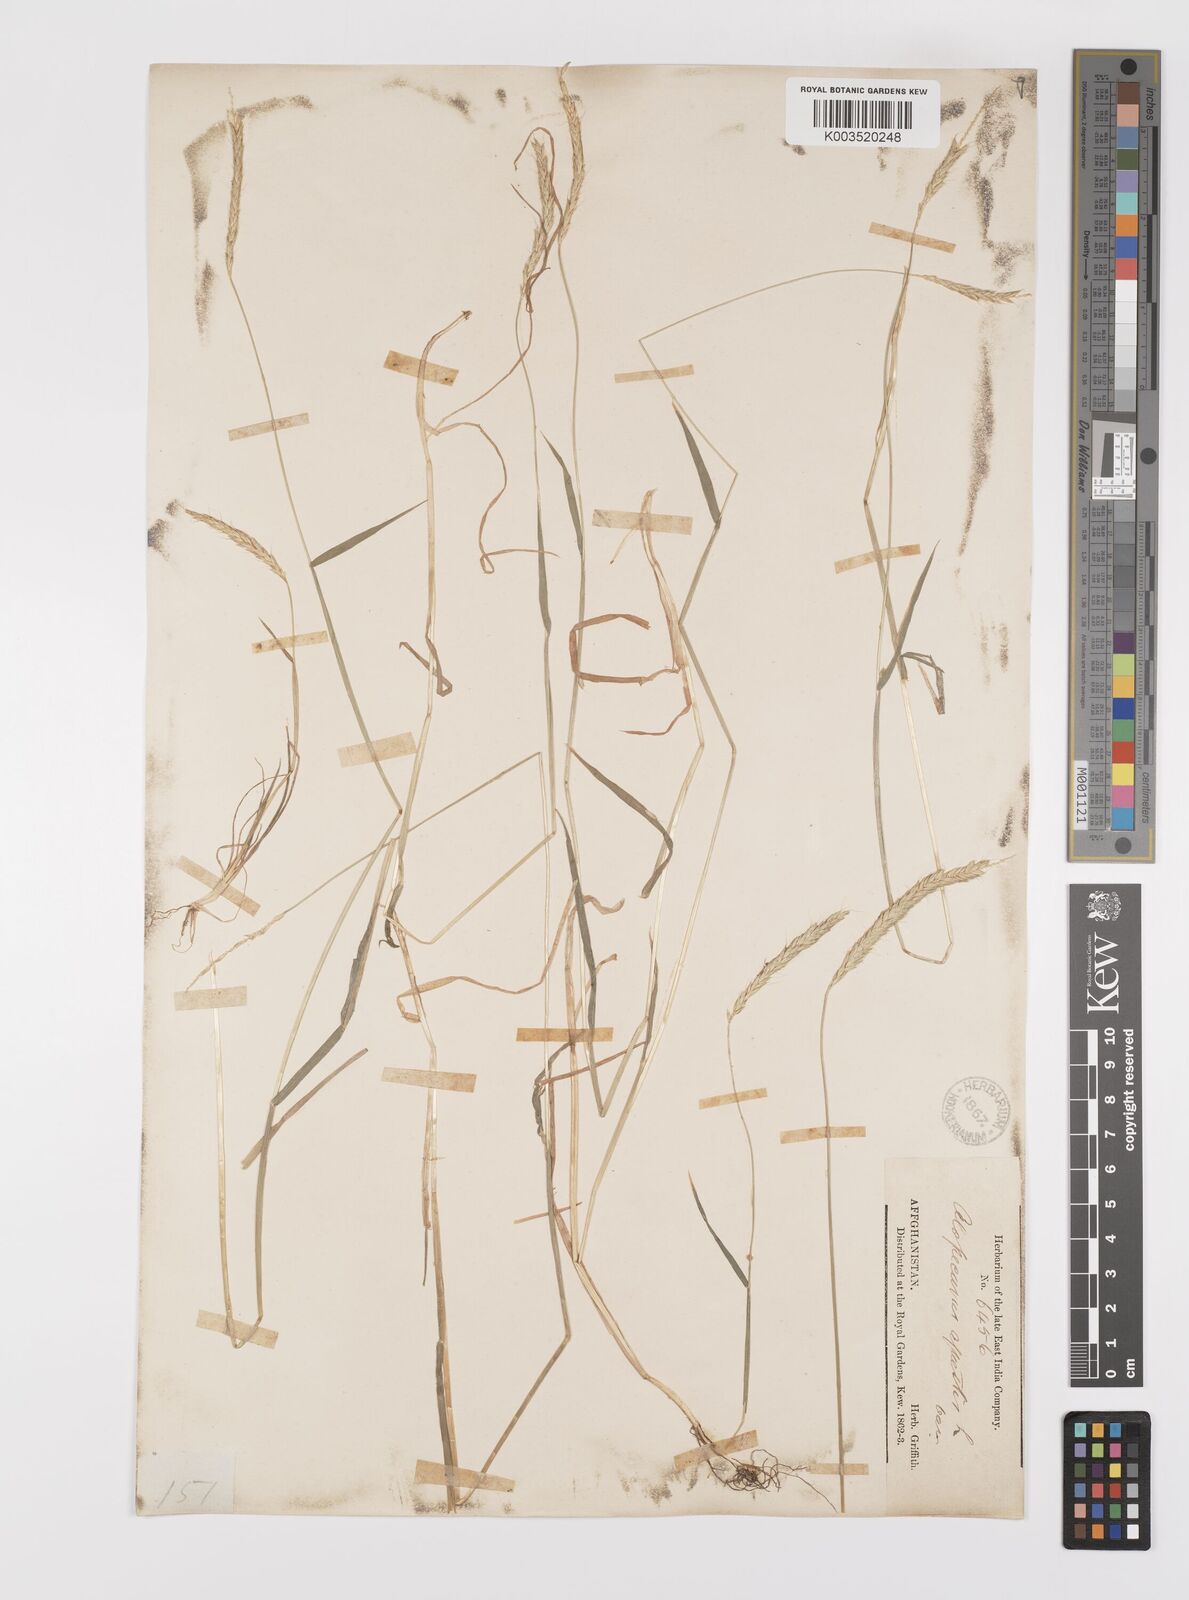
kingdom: Plantae
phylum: Tracheophyta
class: Liliopsida
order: Poales
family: Poaceae
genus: Alopecurus
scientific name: Alopecurus myosuroides
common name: Black-grass
